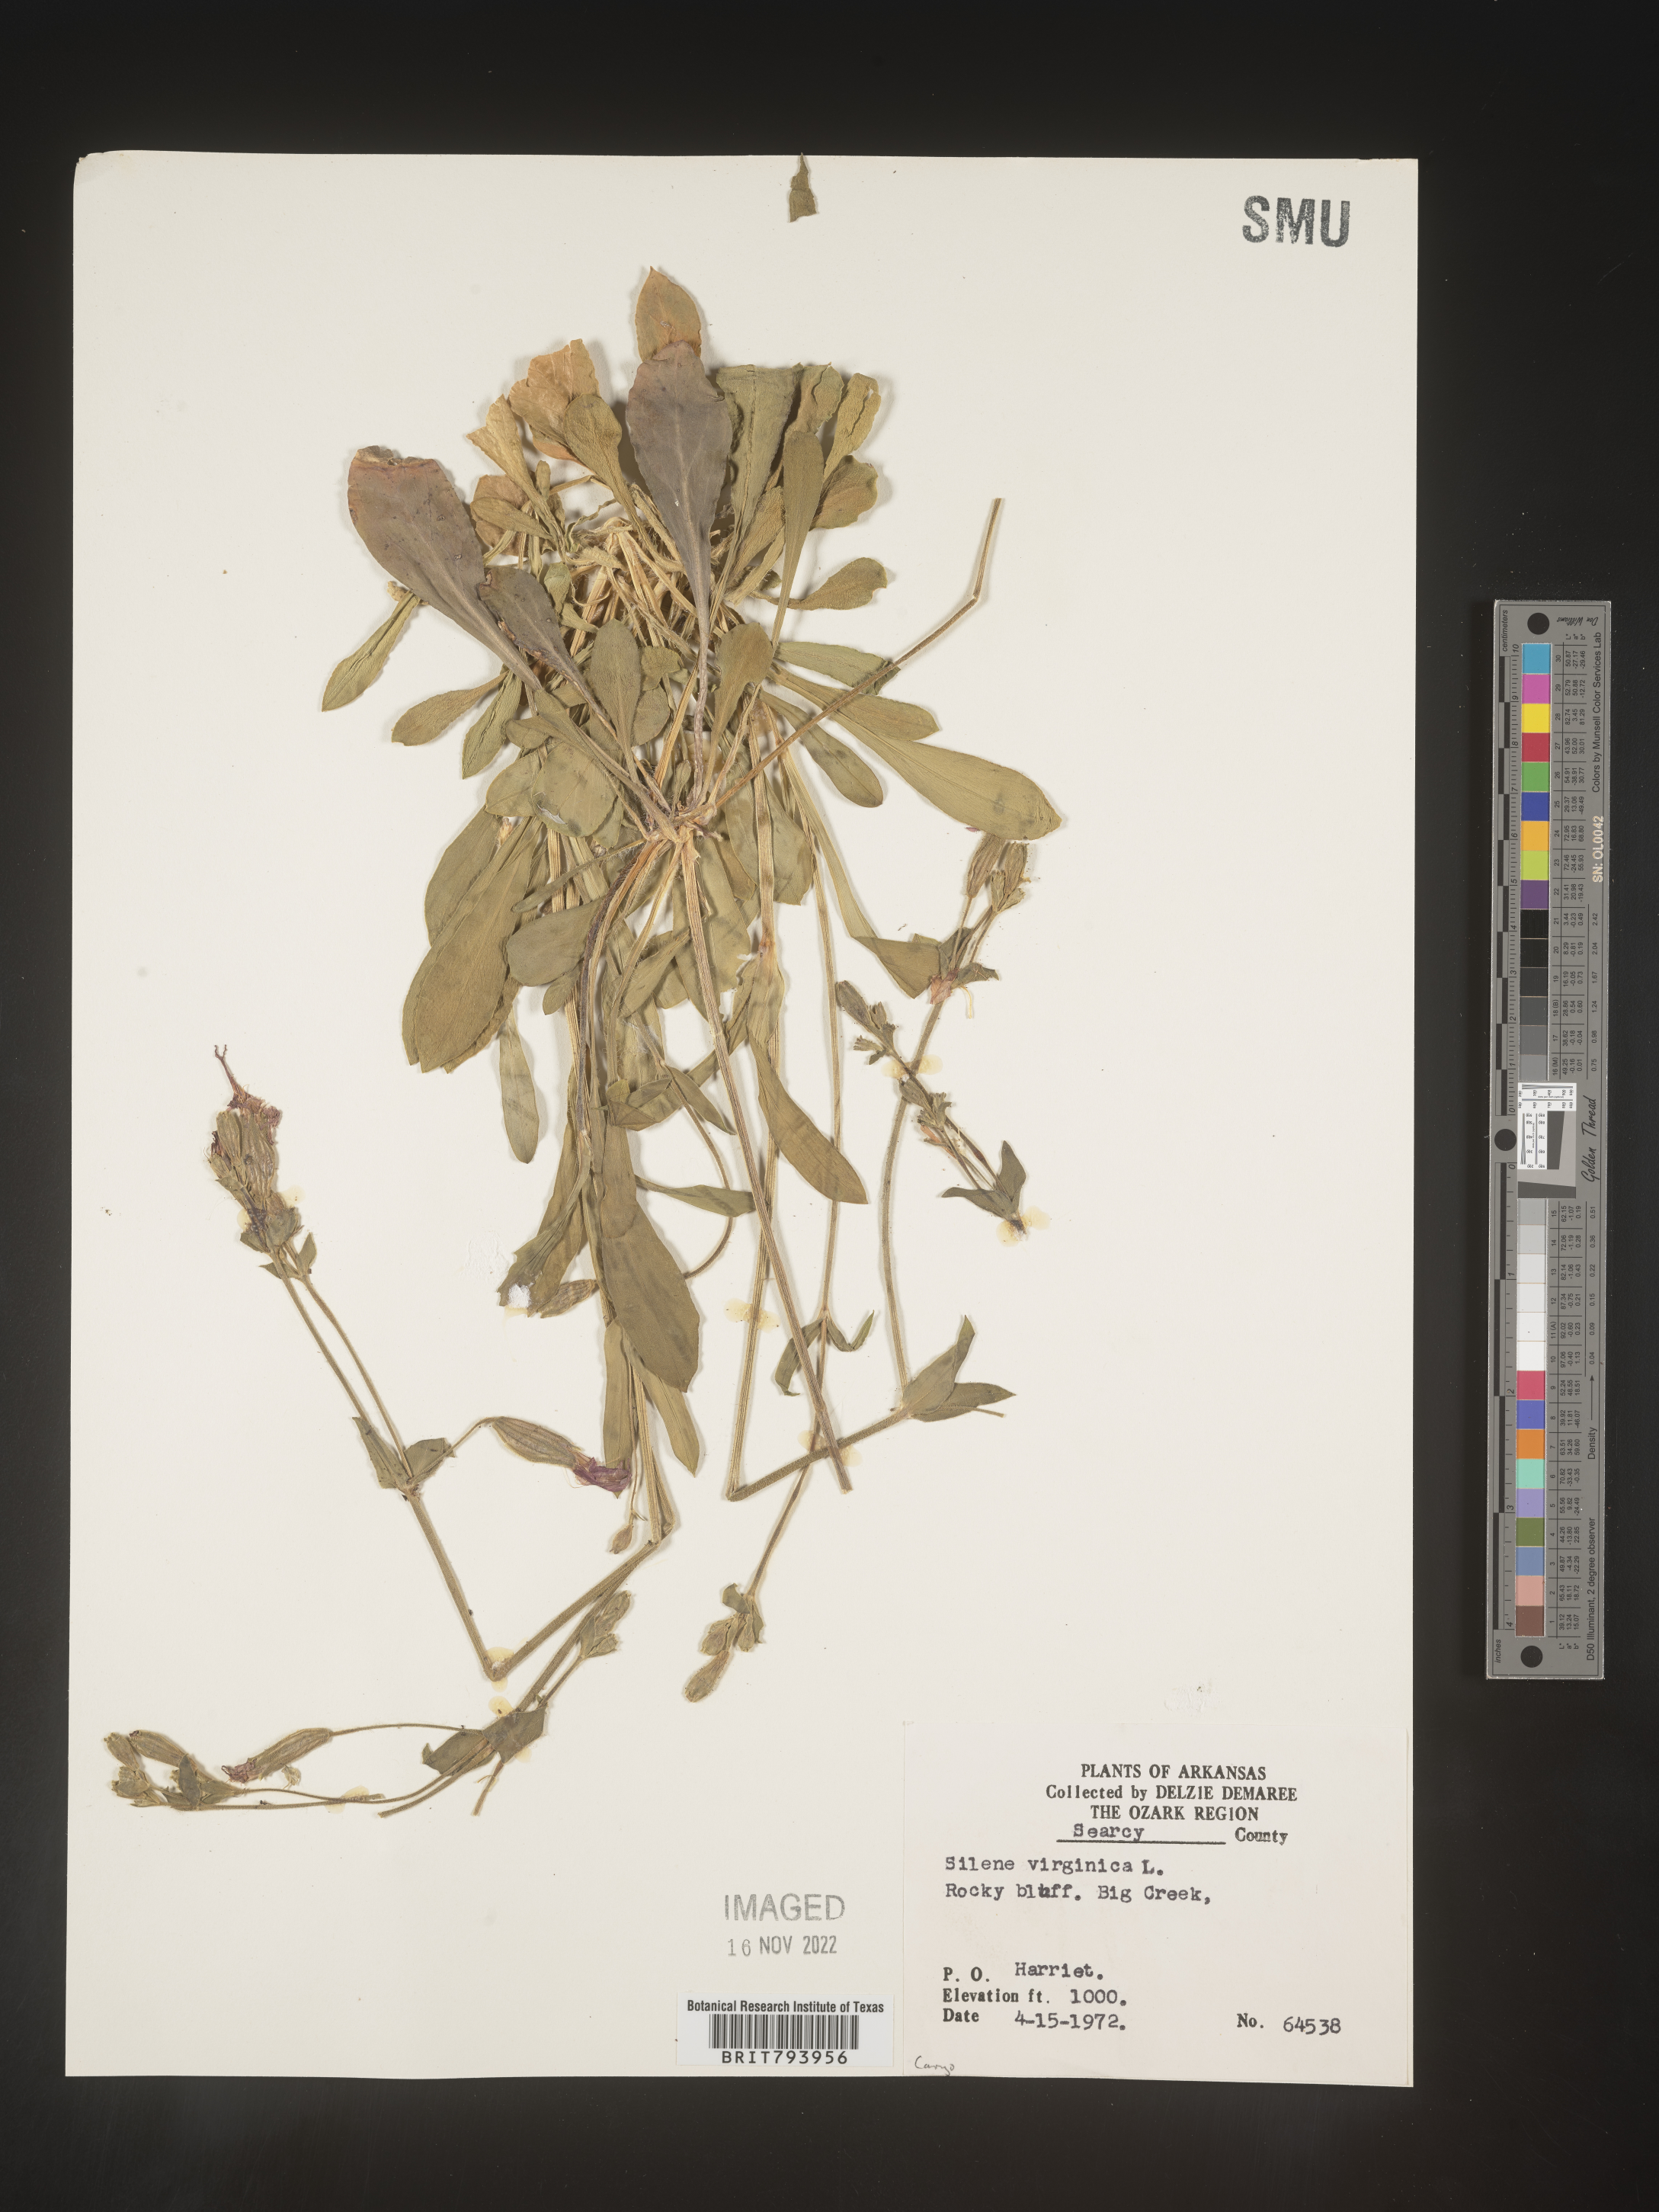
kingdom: Plantae
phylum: Tracheophyta
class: Magnoliopsida
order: Caryophyllales
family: Caryophyllaceae
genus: Silene
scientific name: Silene virginica
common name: Fire-pink
